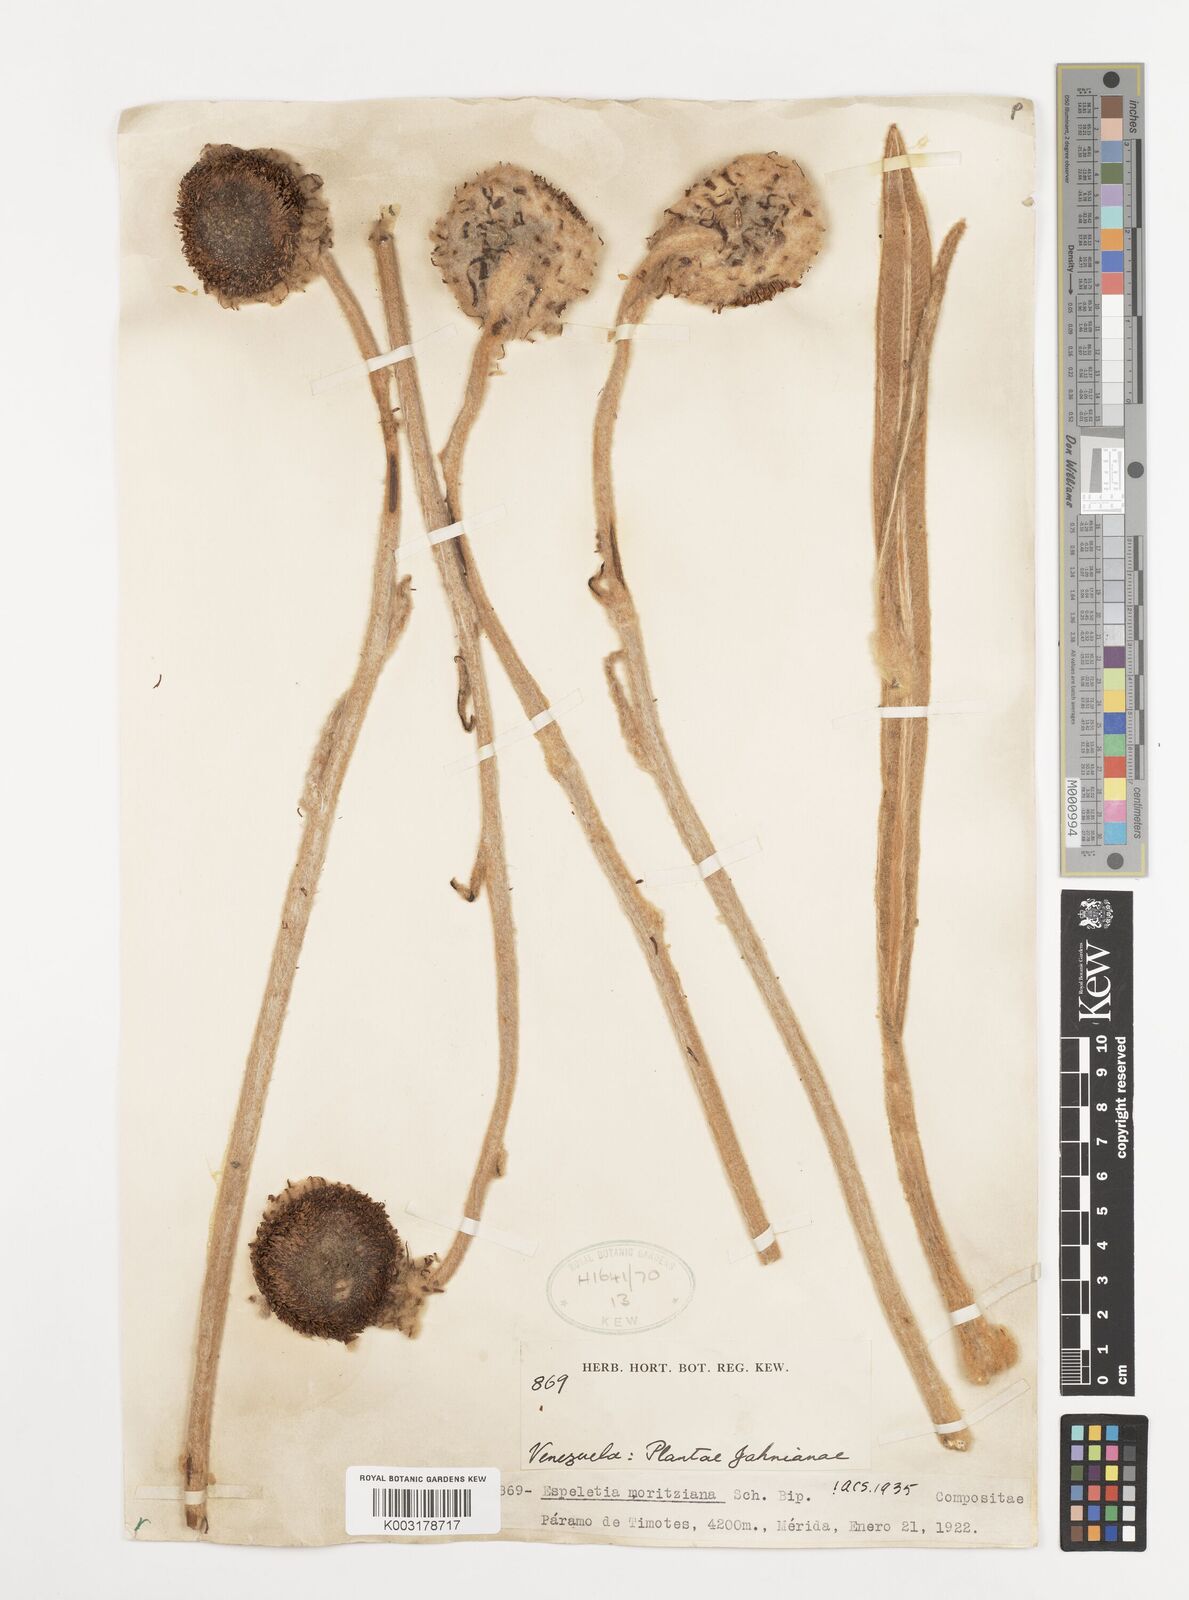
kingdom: Plantae
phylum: Tracheophyta
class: Magnoliopsida
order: Asterales
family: Asteraceae
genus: Espeletia
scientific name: Espeletia moritziana
